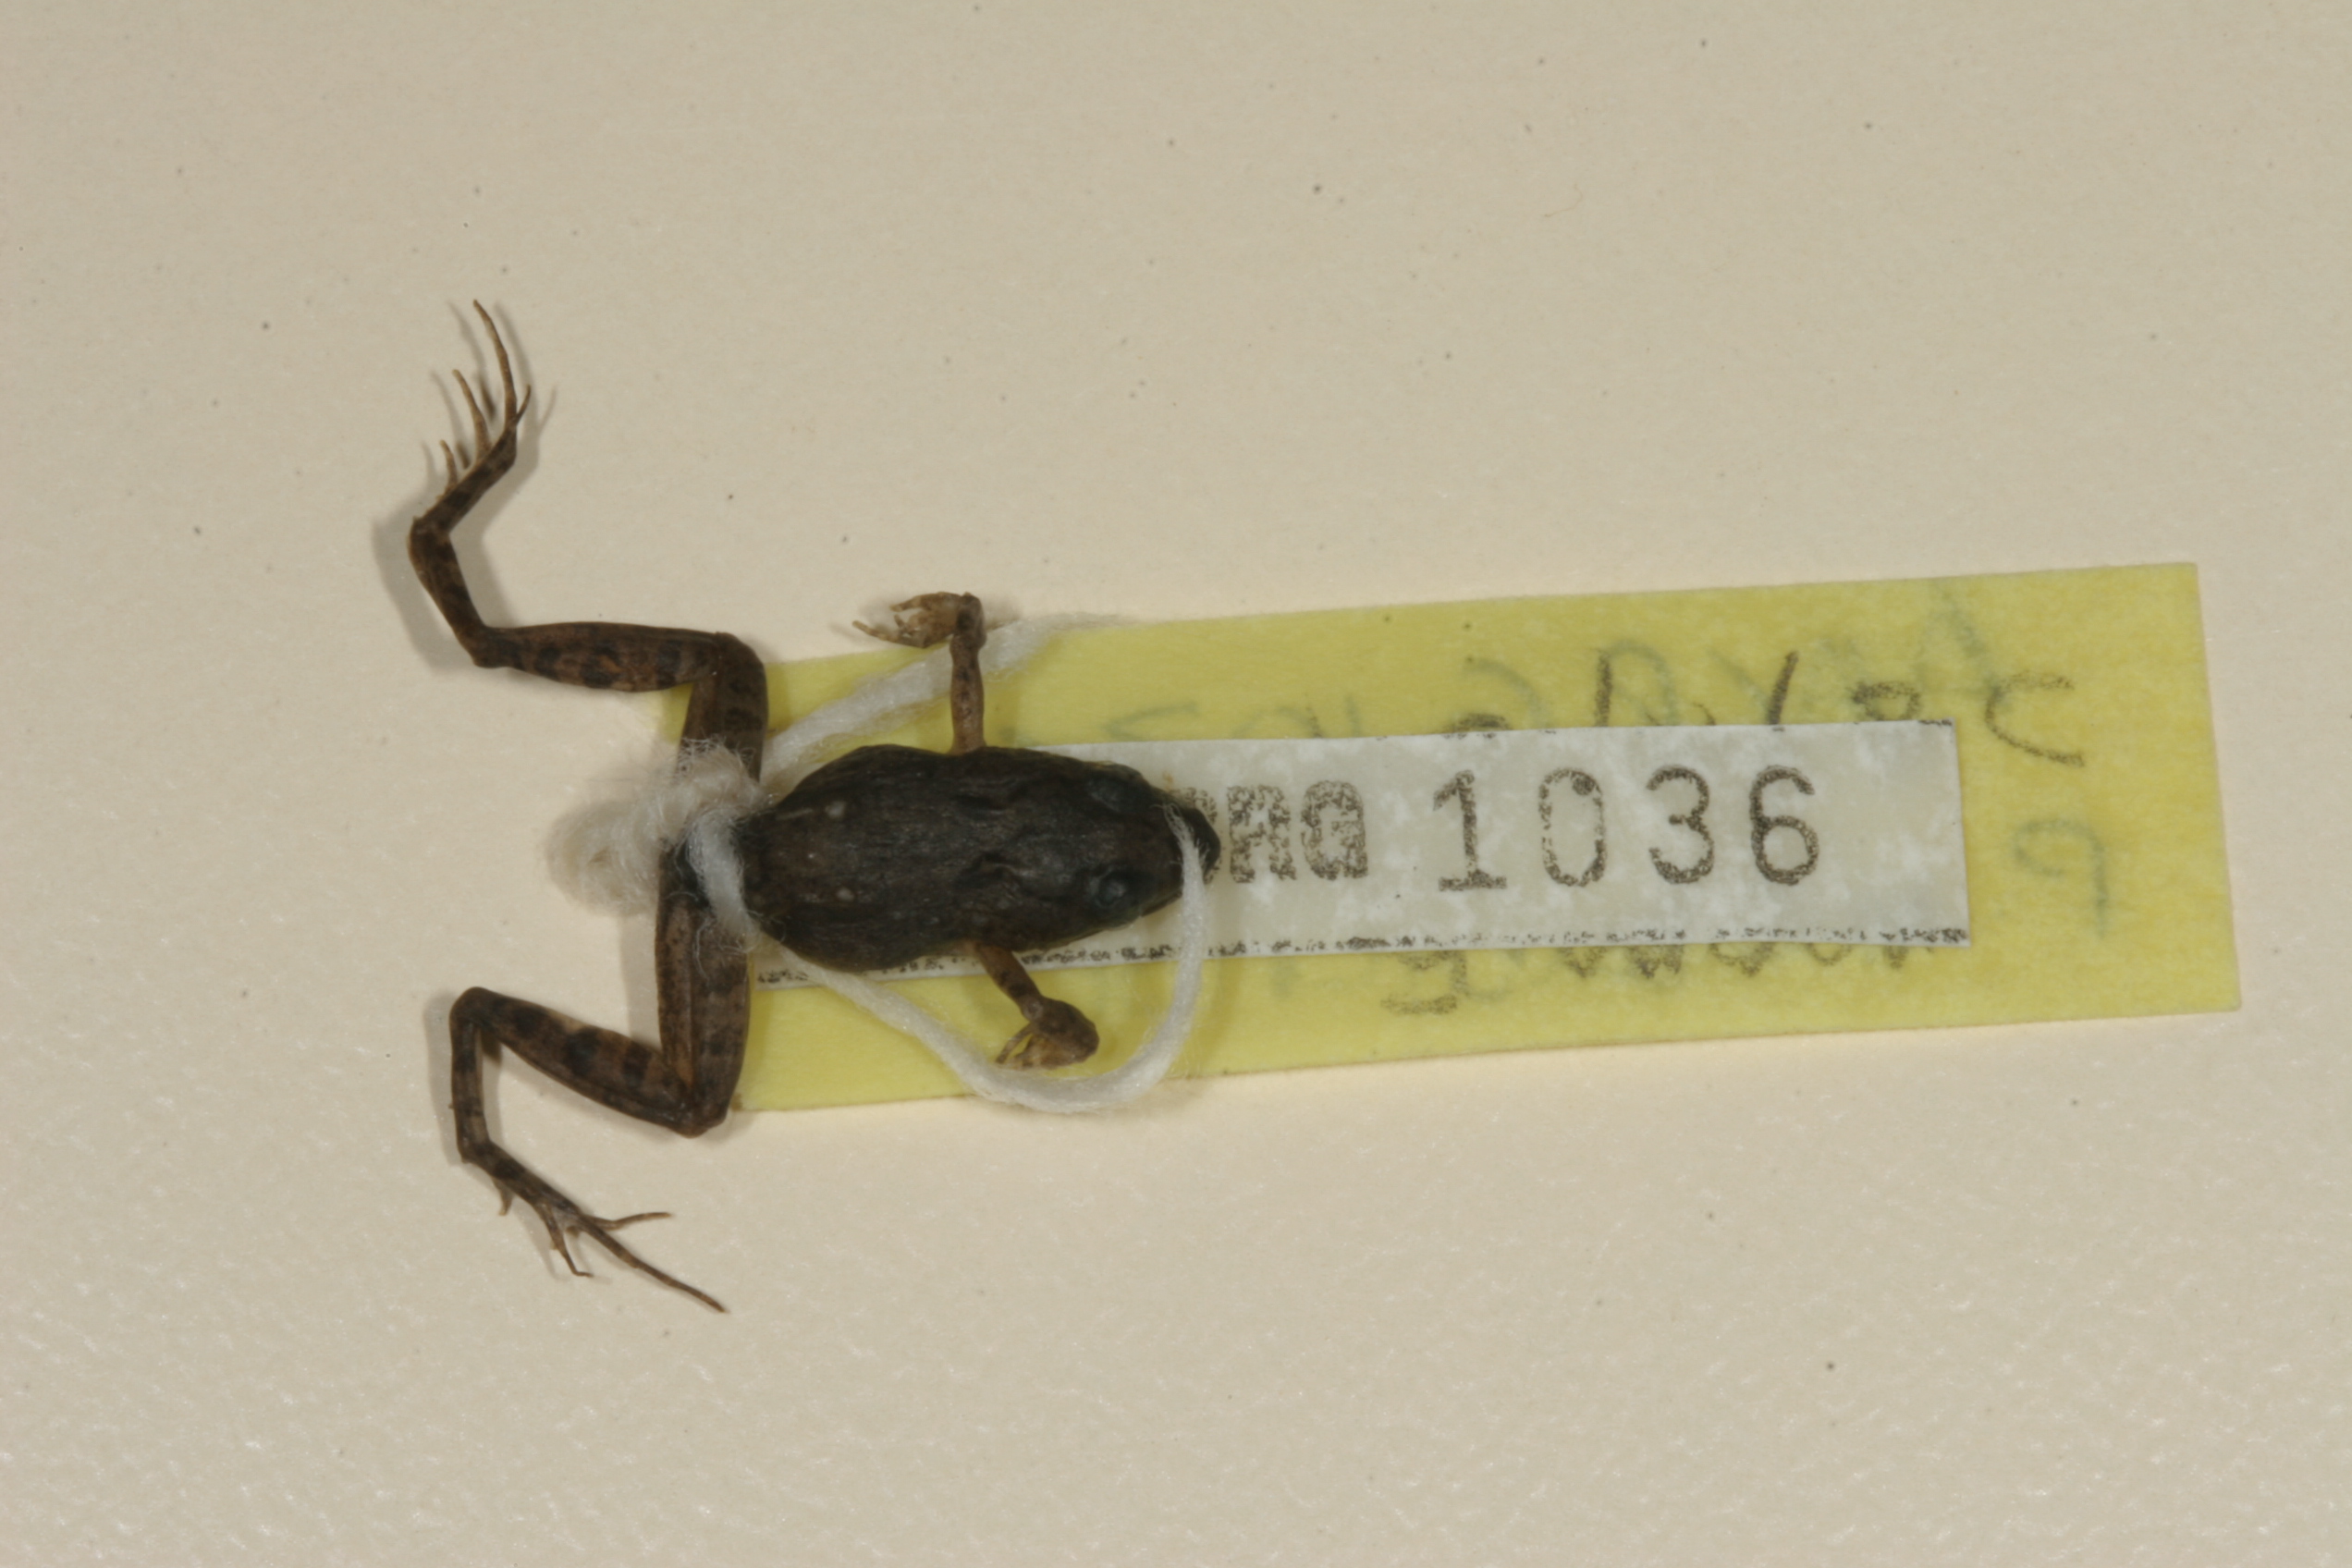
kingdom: Animalia
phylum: Chordata
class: Amphibia
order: Anura
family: Phrynobatrachidae
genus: Phrynobatrachus
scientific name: Phrynobatrachus mababiensis
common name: Dwarf puddle frog
